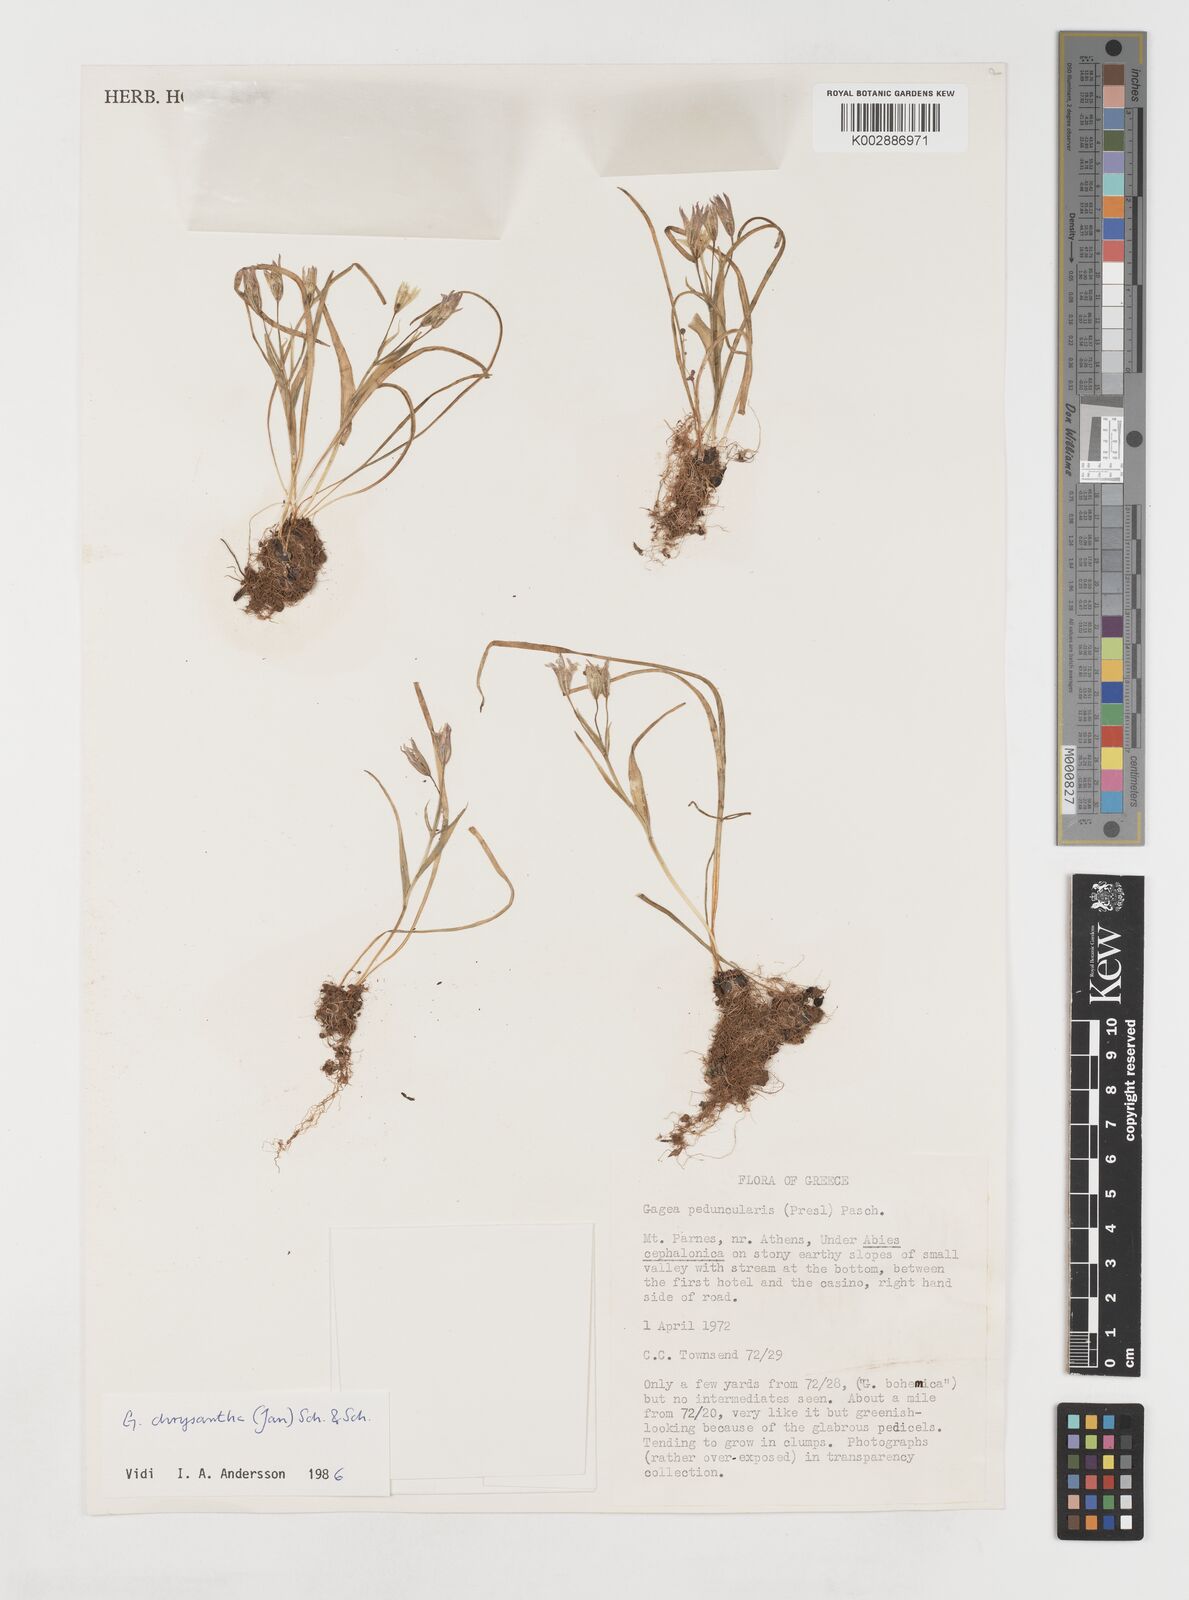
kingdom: Plantae
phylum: Tracheophyta
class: Liliopsida
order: Liliales
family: Liliaceae
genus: Gagea
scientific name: Gagea amblyopetala
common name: Blunt-flowered gagea
